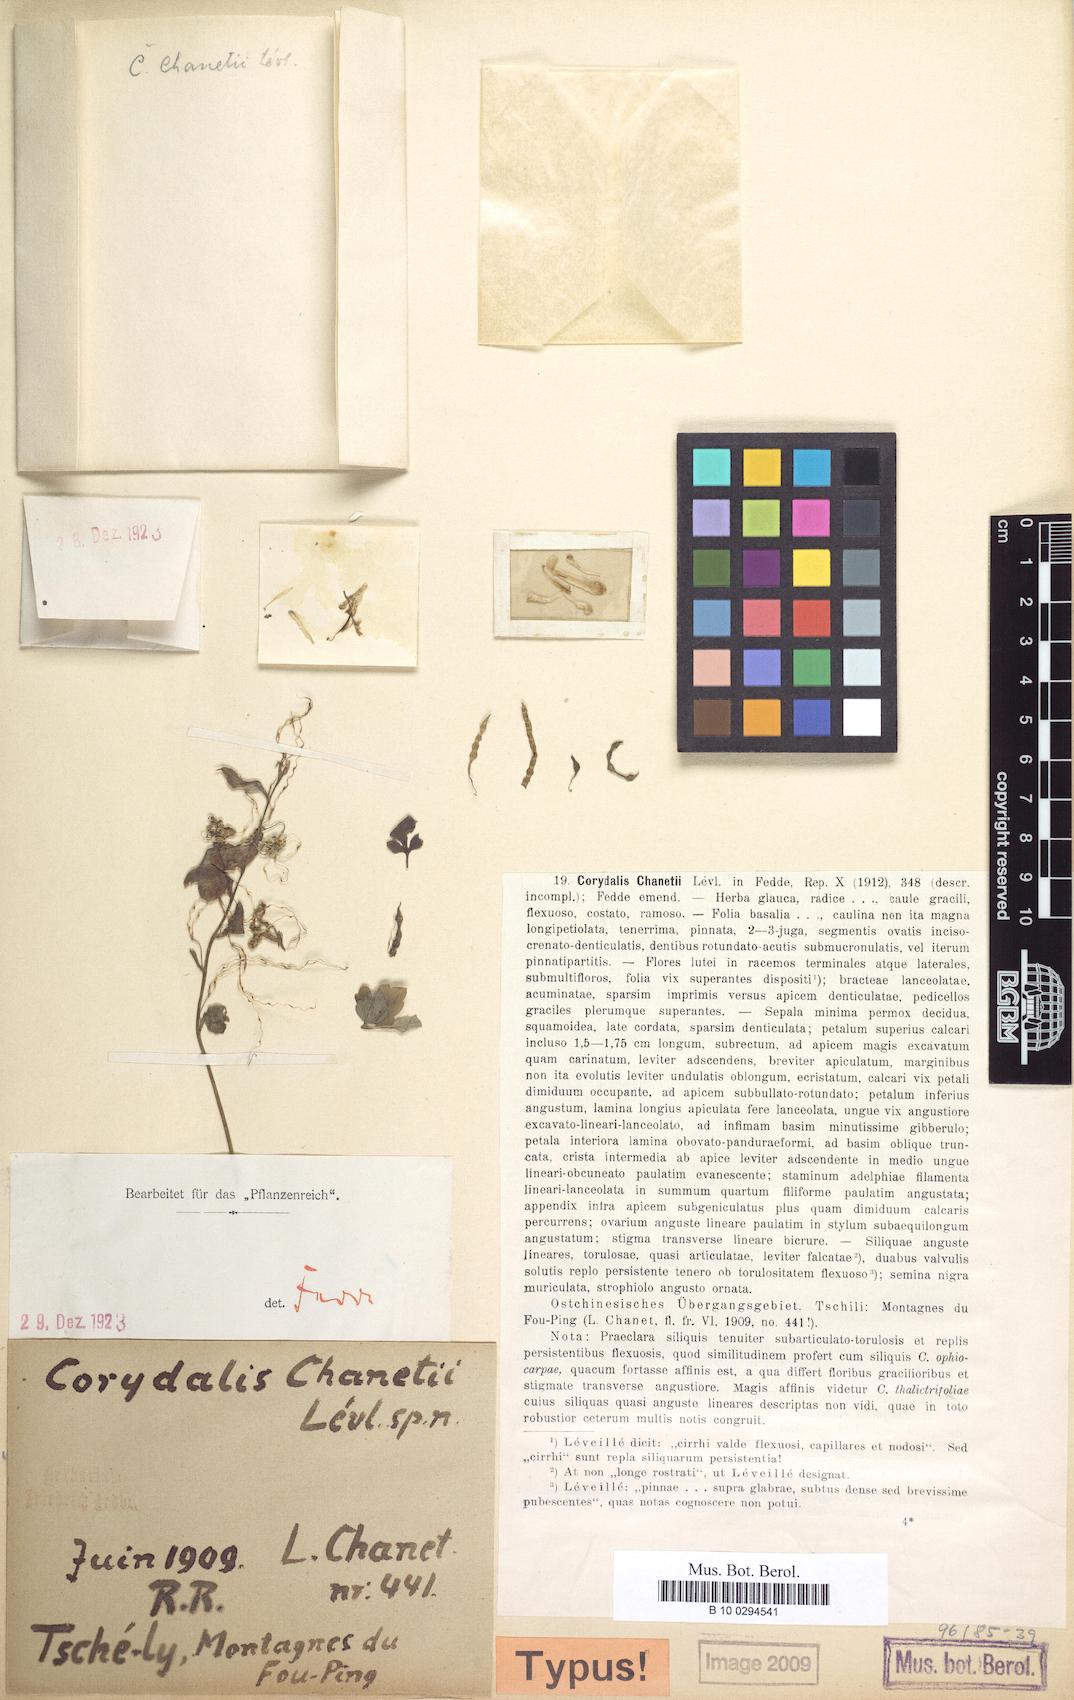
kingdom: Plantae
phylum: Tracheophyta
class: Magnoliopsida
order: Ranunculales
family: Papaveraceae
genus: Corydalis
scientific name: Corydalis wilfordii
